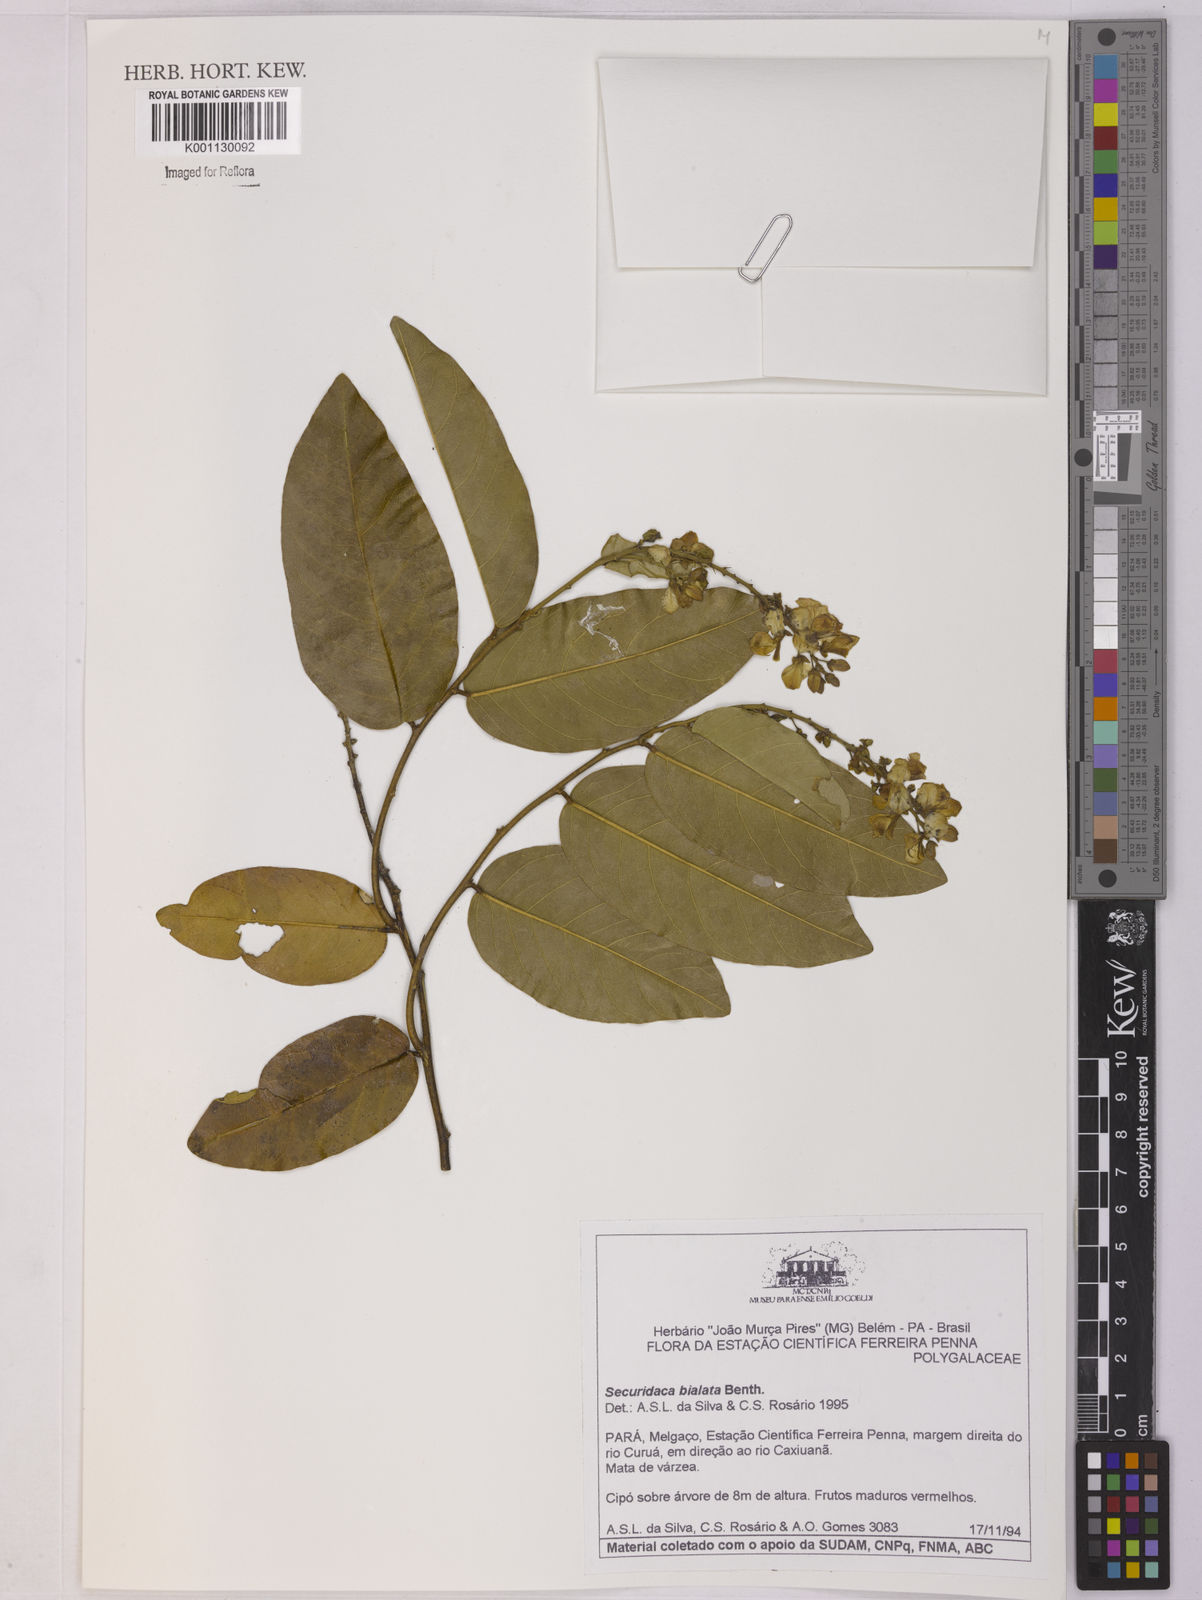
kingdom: Plantae
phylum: Tracheophyta
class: Magnoliopsida
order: Fabales
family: Polygalaceae
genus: Securidaca
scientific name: Securidaca bialata
